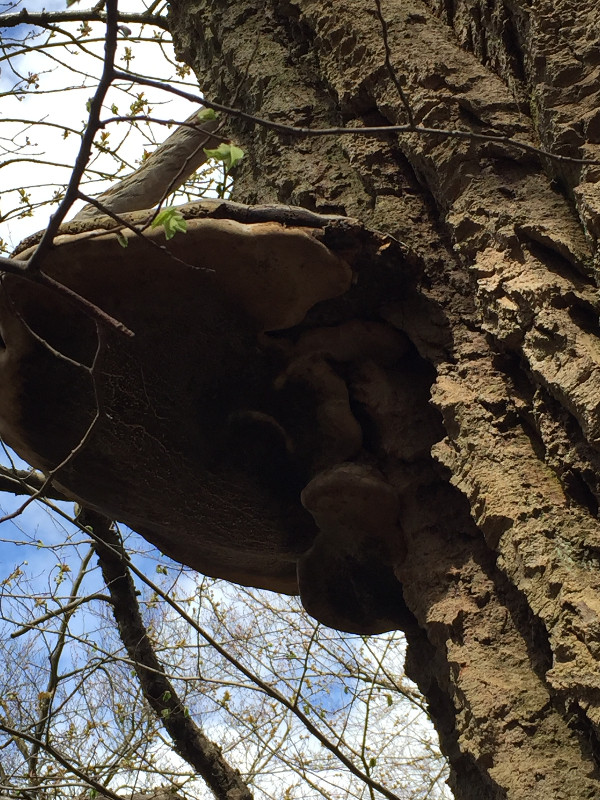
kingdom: Fungi
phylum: Basidiomycota
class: Agaricomycetes
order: Hymenochaetales
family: Hymenochaetaceae
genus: Phellinus
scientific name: Phellinus populicola
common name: poppel-ildporesvamp
